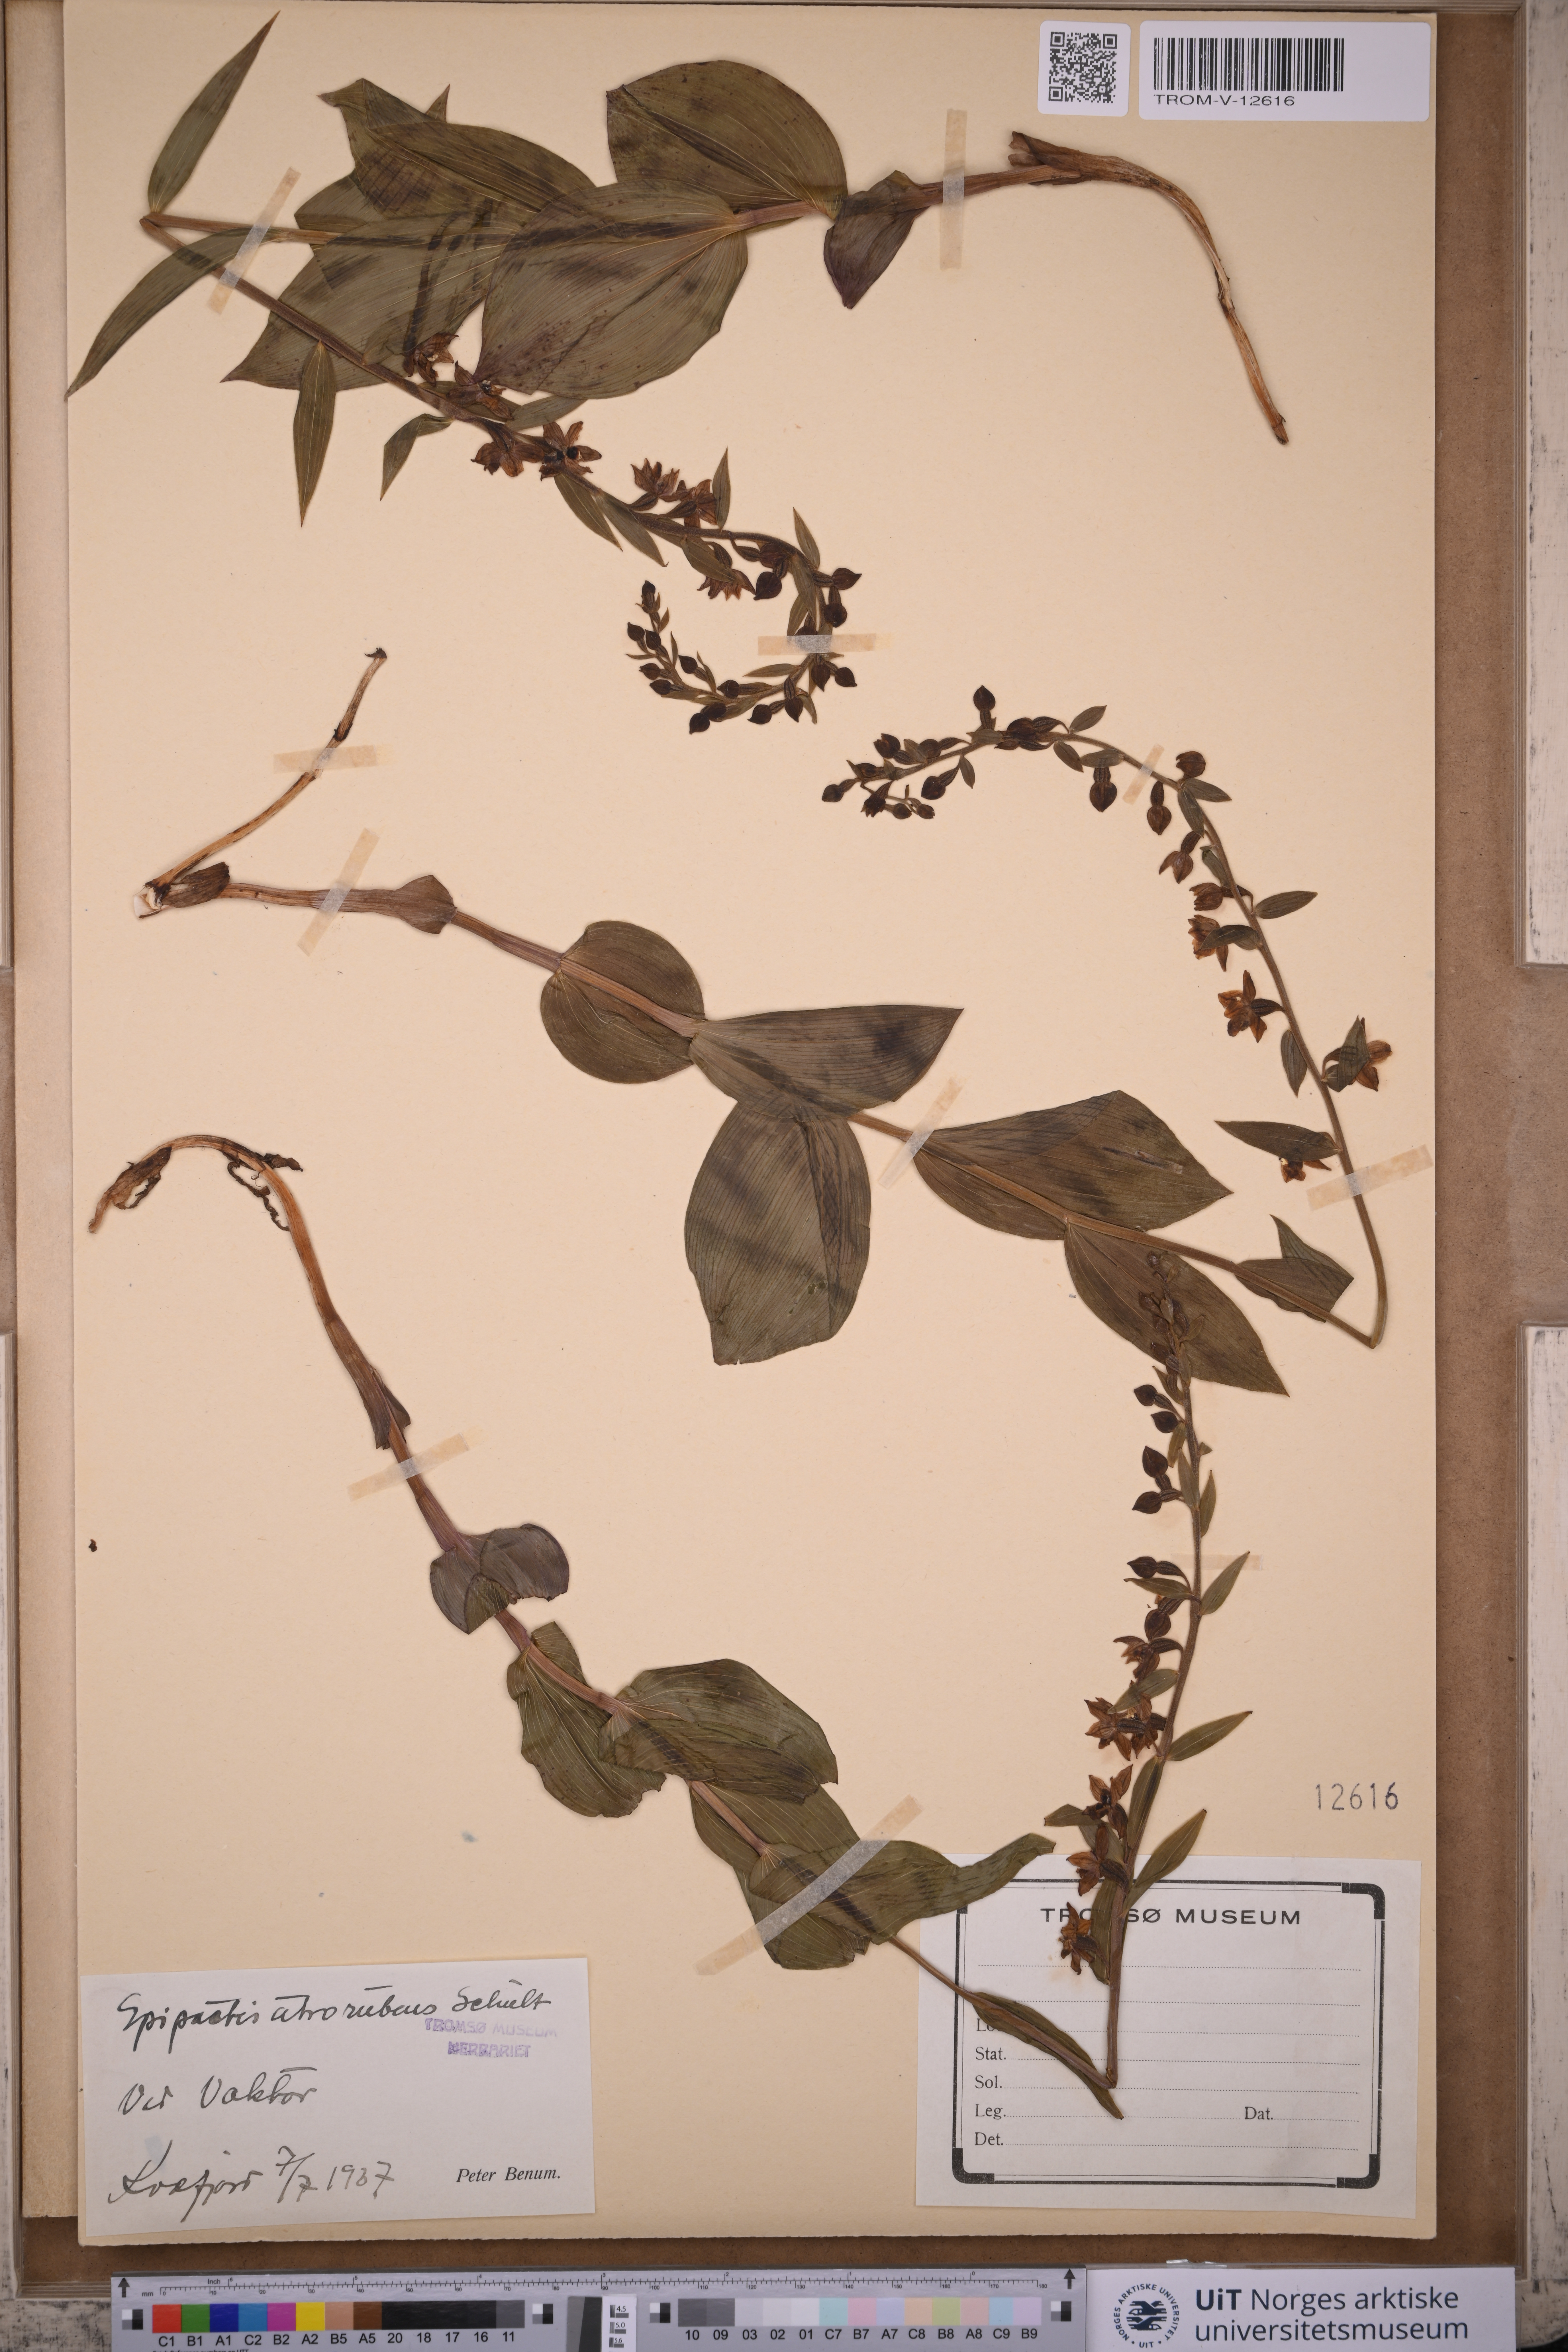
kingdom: Plantae
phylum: Tracheophyta
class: Liliopsida
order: Asparagales
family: Orchidaceae
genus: Epipactis
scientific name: Epipactis atrorubens
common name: Dark-red helleborine
